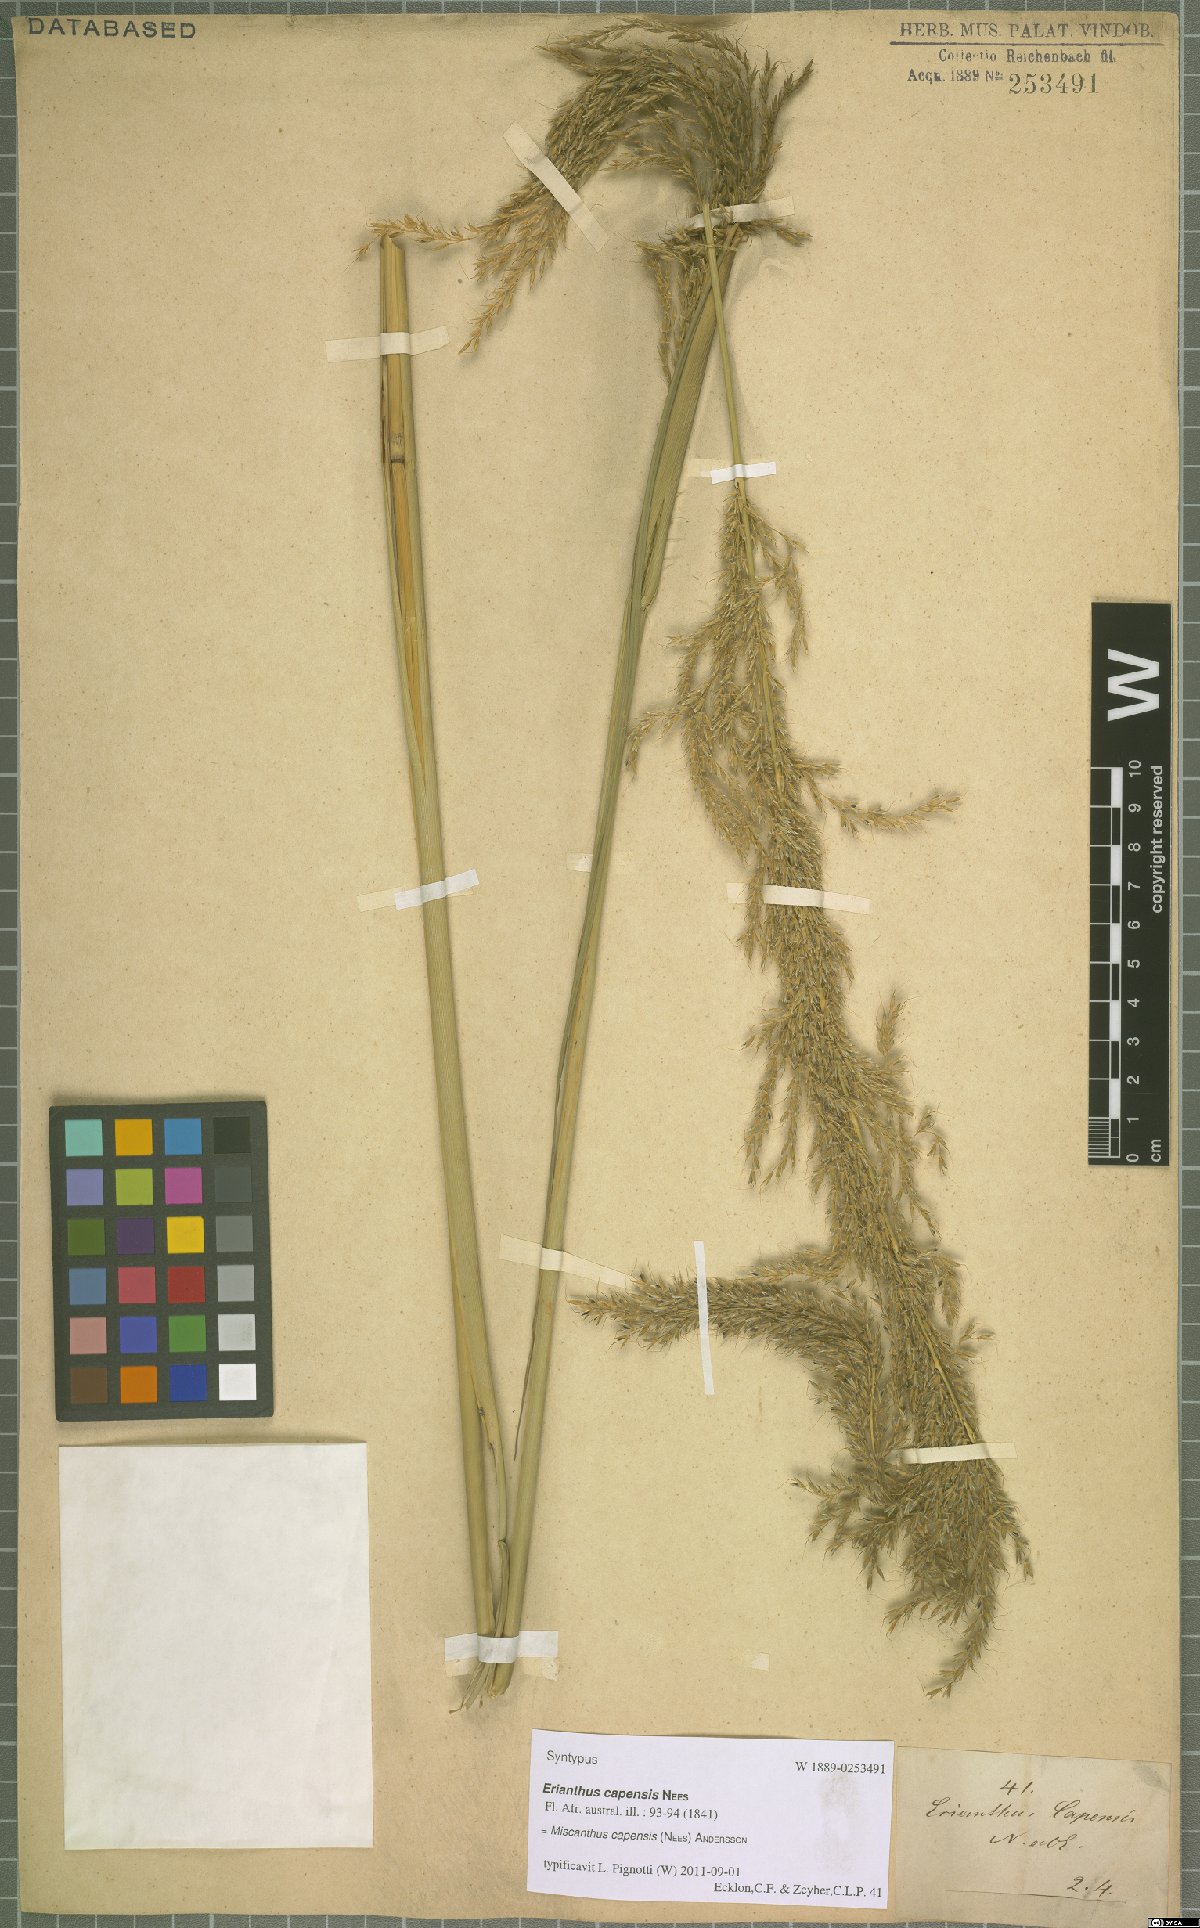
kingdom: Plantae
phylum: Tracheophyta
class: Liliopsida
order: Poales
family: Poaceae
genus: Miscanthus
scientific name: Miscanthus ecklonii
